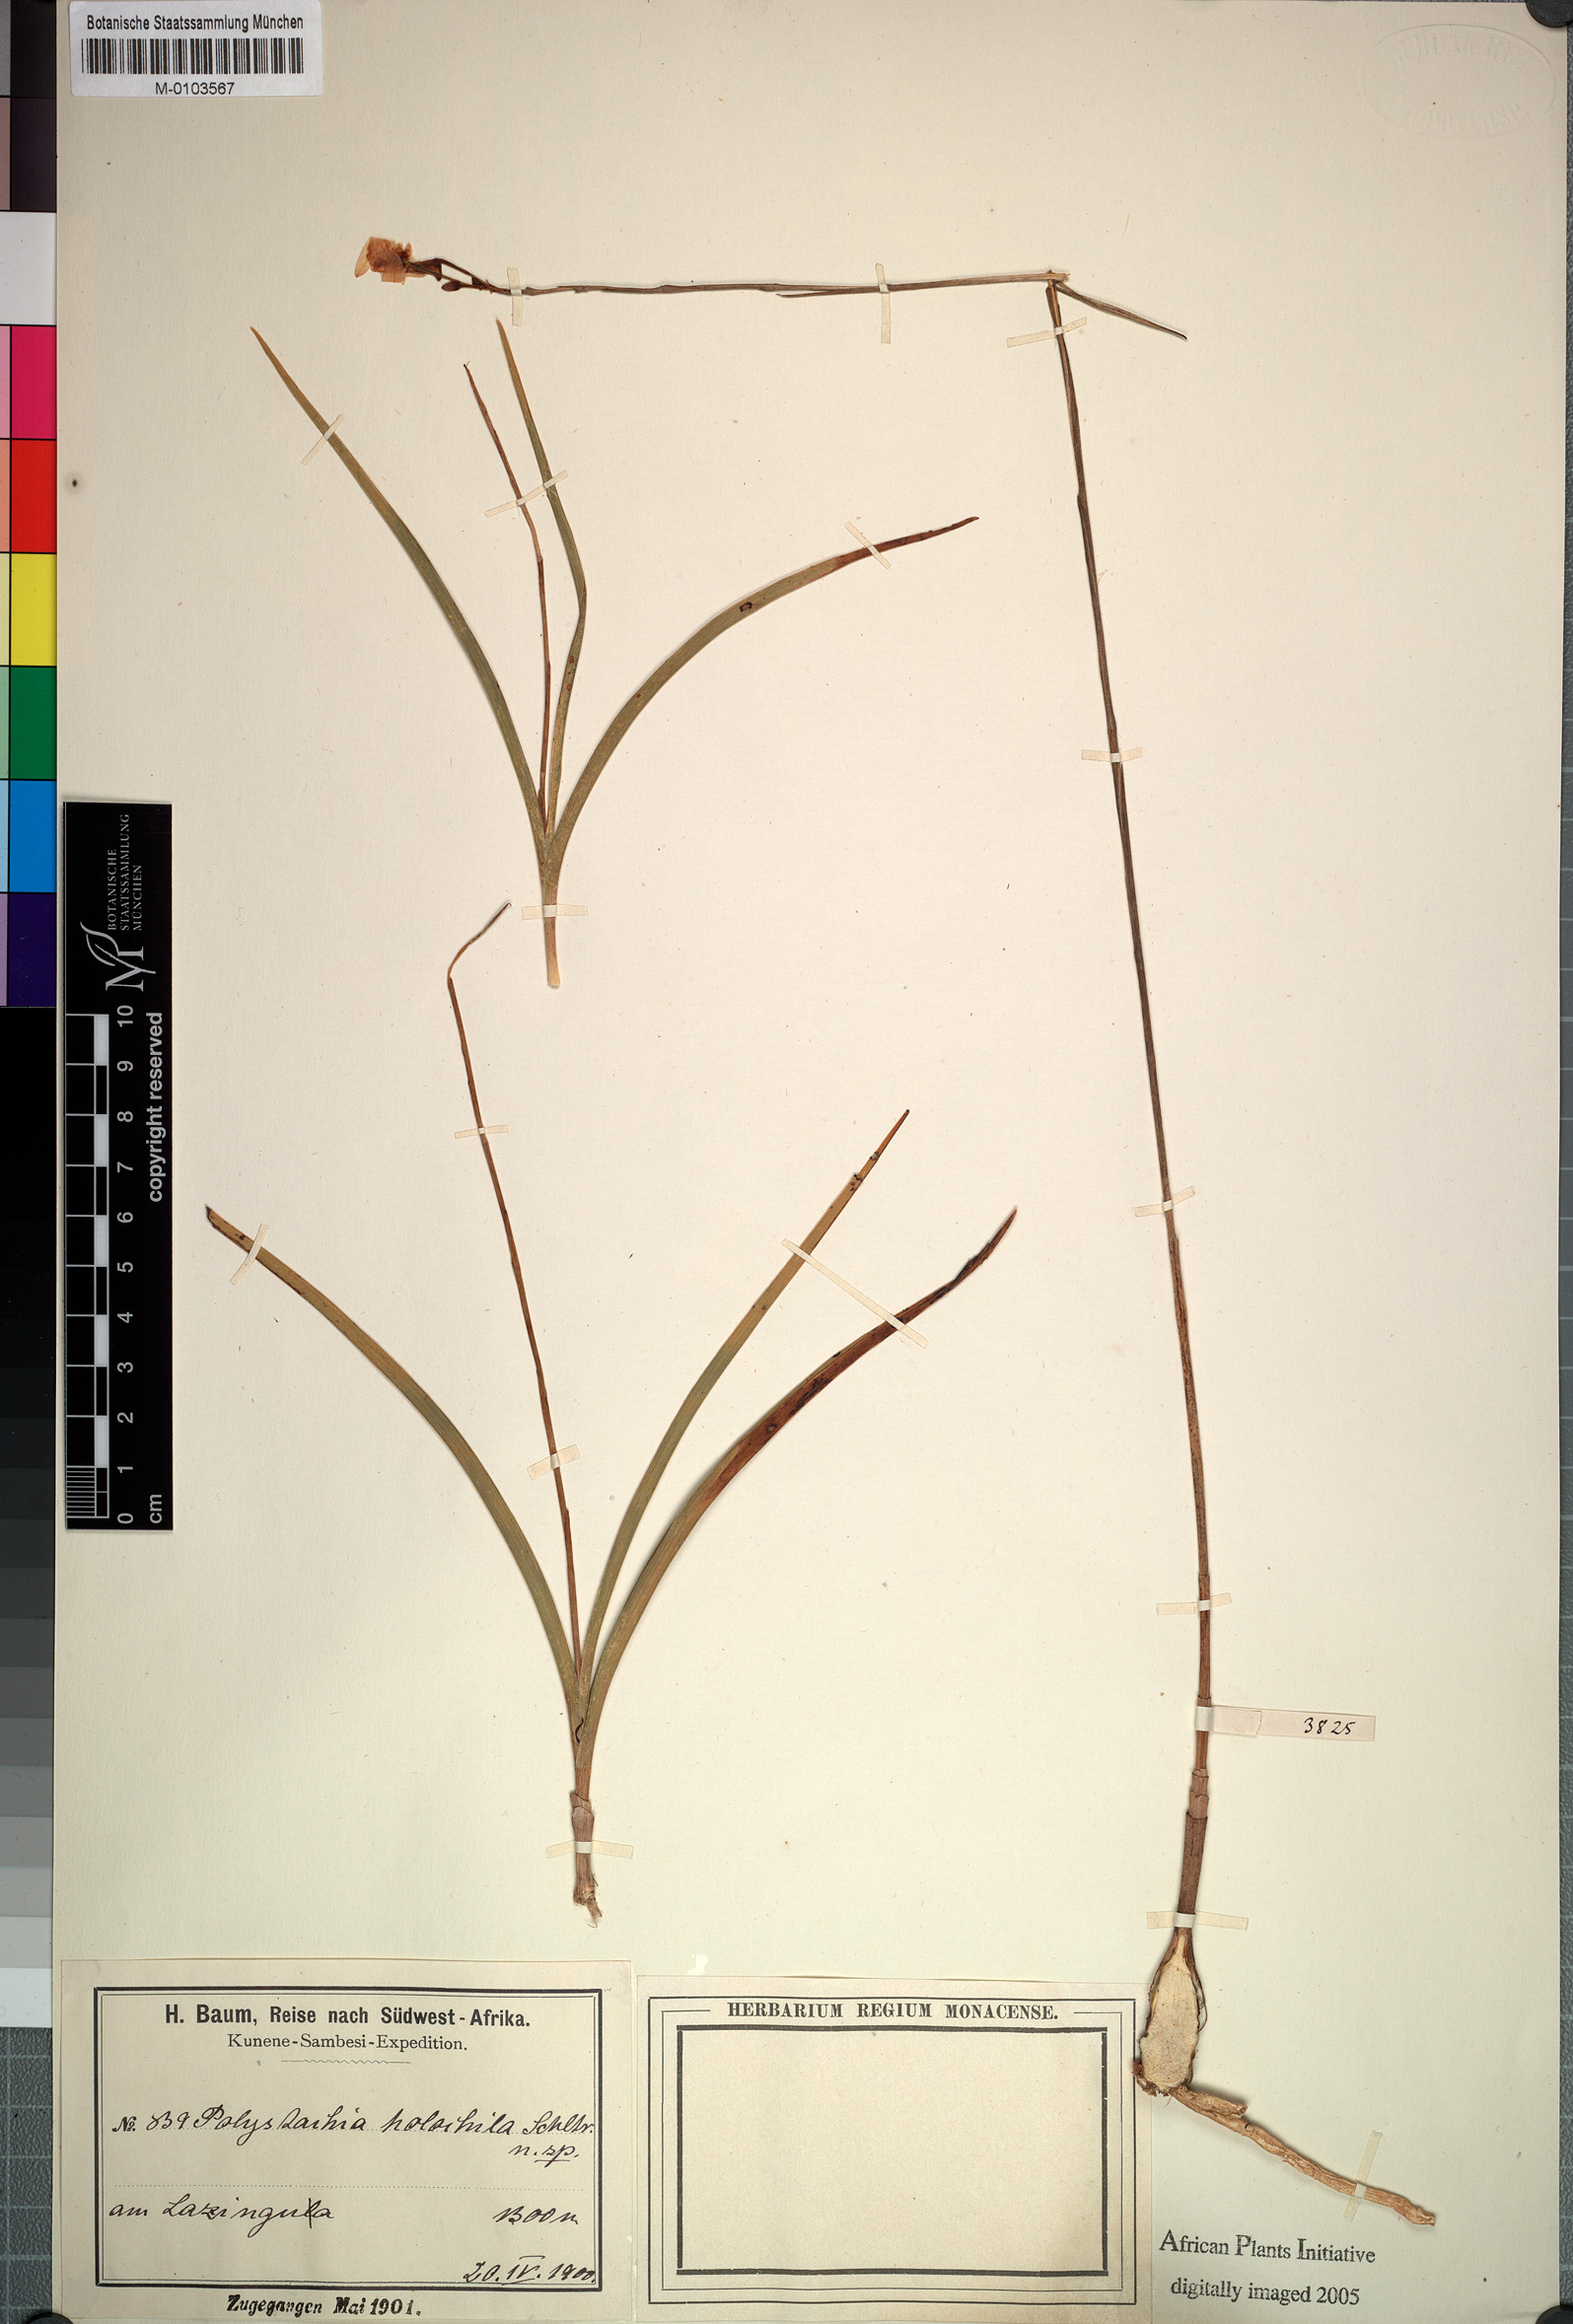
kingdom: Plantae
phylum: Tracheophyta
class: Liliopsida
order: Asparagales
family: Orchidaceae
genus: Polystachya
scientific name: Polystachya dendrobiiflora
